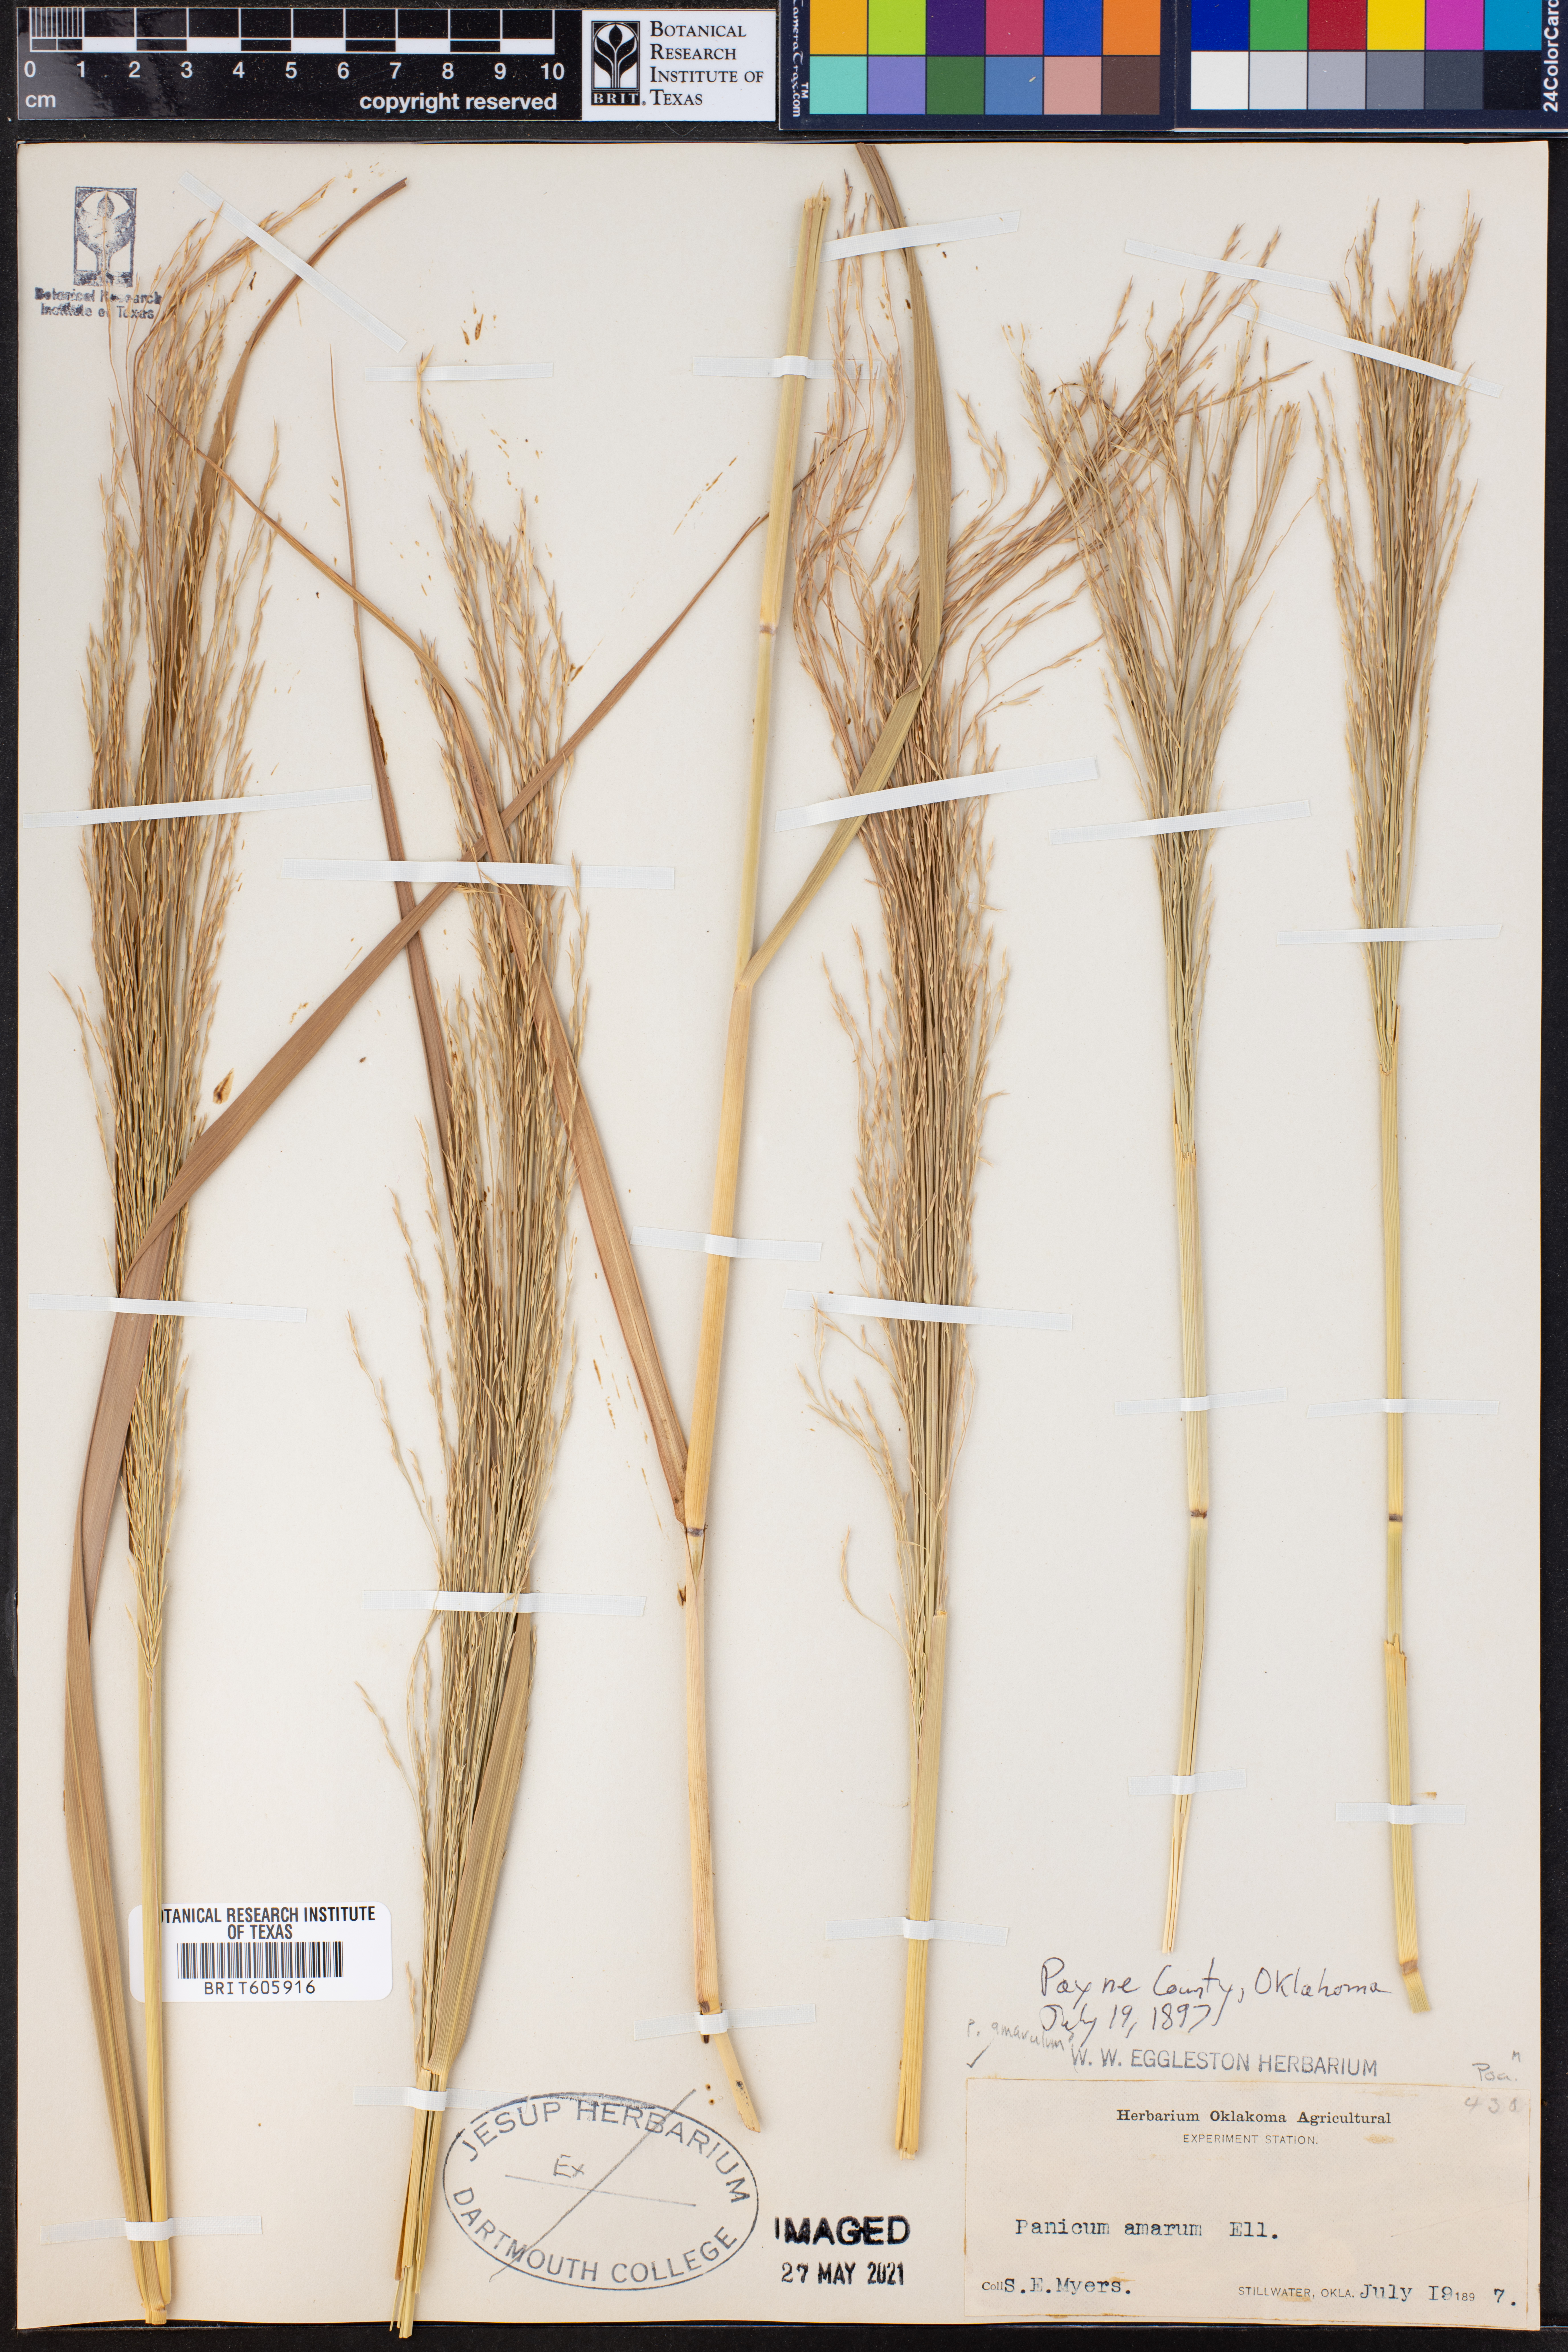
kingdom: Plantae
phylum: Tracheophyta
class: Liliopsida
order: Poales
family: Poaceae
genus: Panicum
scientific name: Panicum amarum
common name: Bitter panicum
